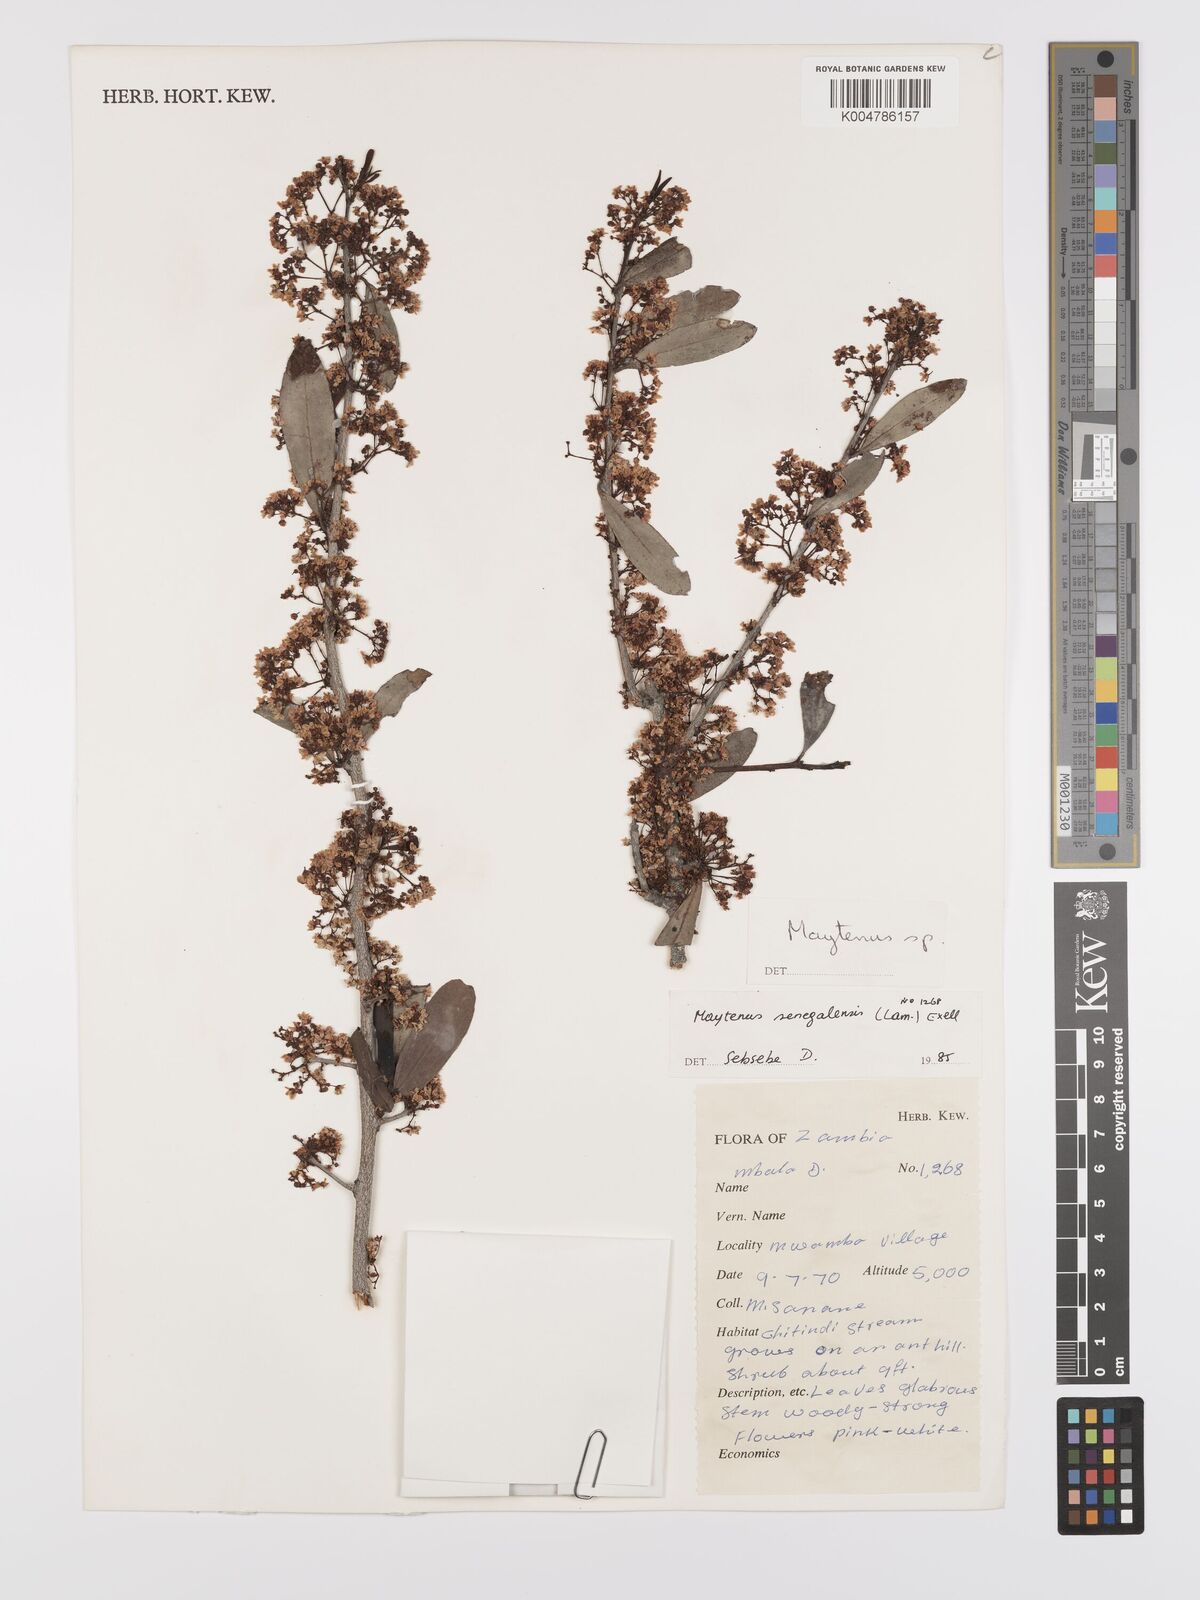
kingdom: Plantae
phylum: Tracheophyta
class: Magnoliopsida
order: Celastrales
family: Celastraceae
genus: Gymnosporia
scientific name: Gymnosporia senegalensis
